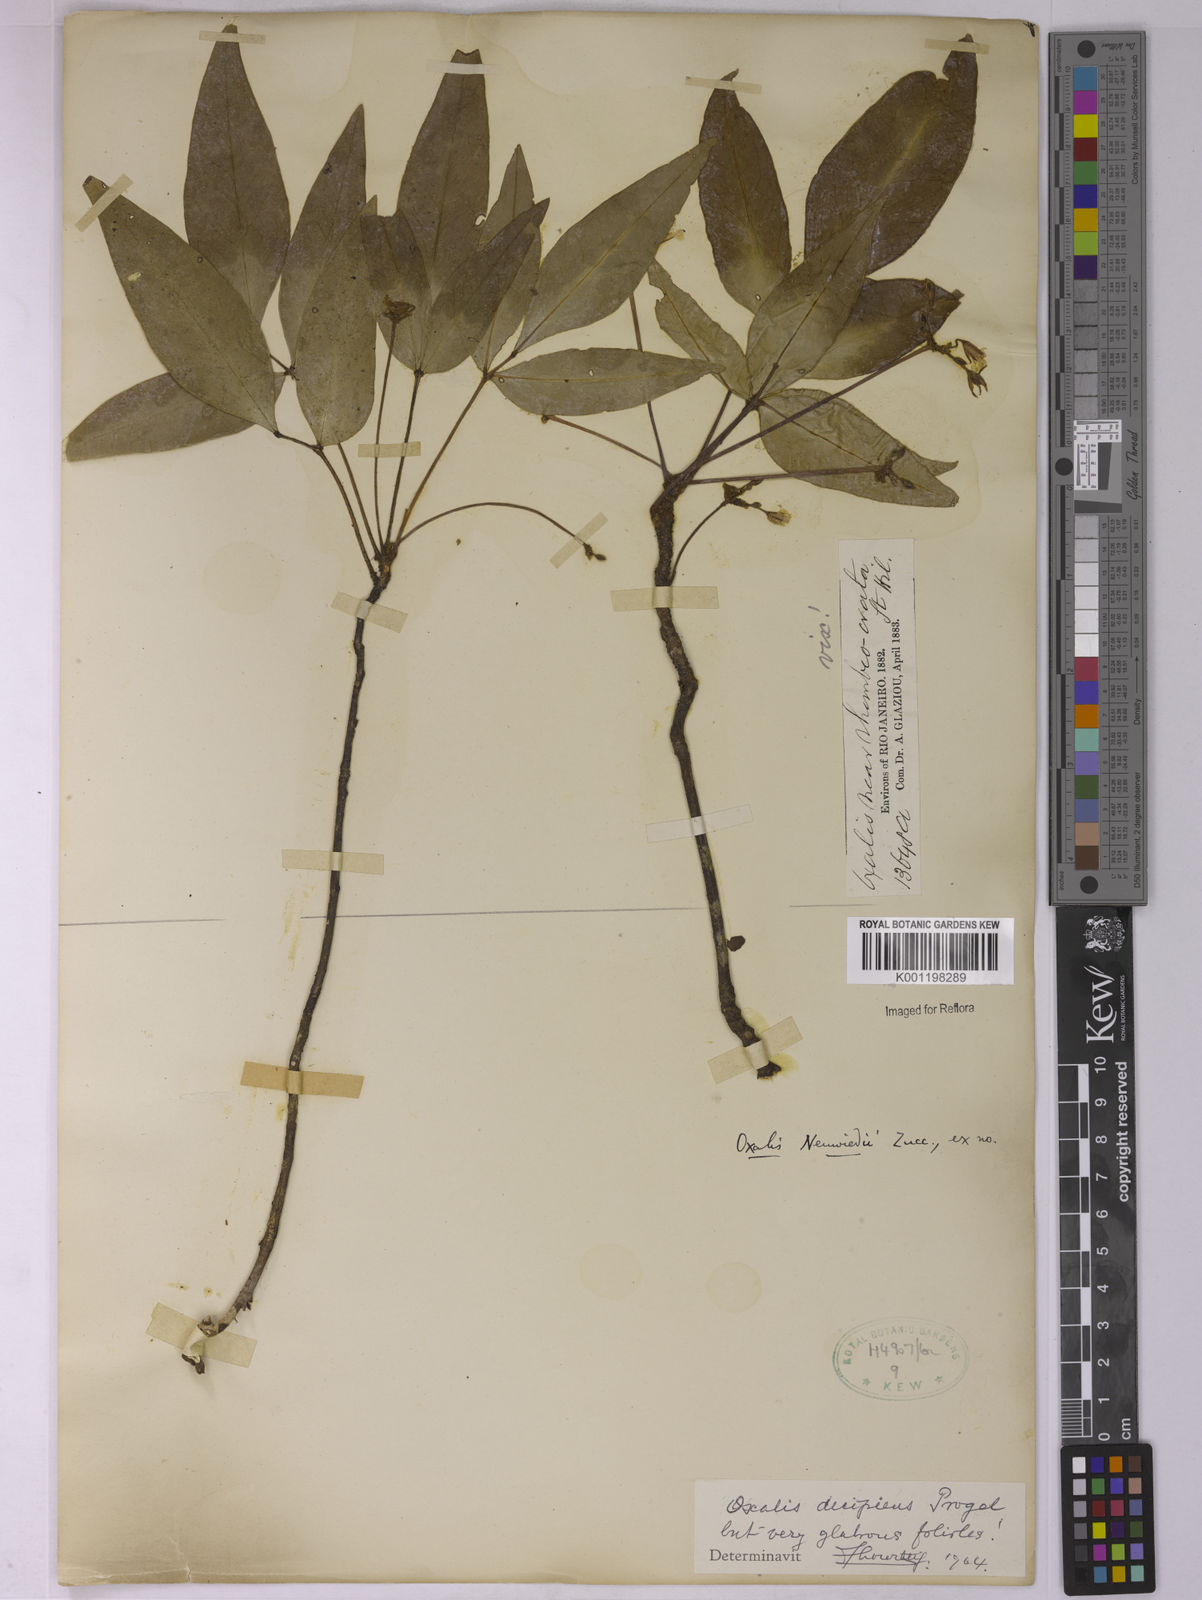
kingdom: Plantae
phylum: Tracheophyta
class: Magnoliopsida
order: Oxalidales
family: Oxalidaceae
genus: Oxalis
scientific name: Oxalis polymorpha
